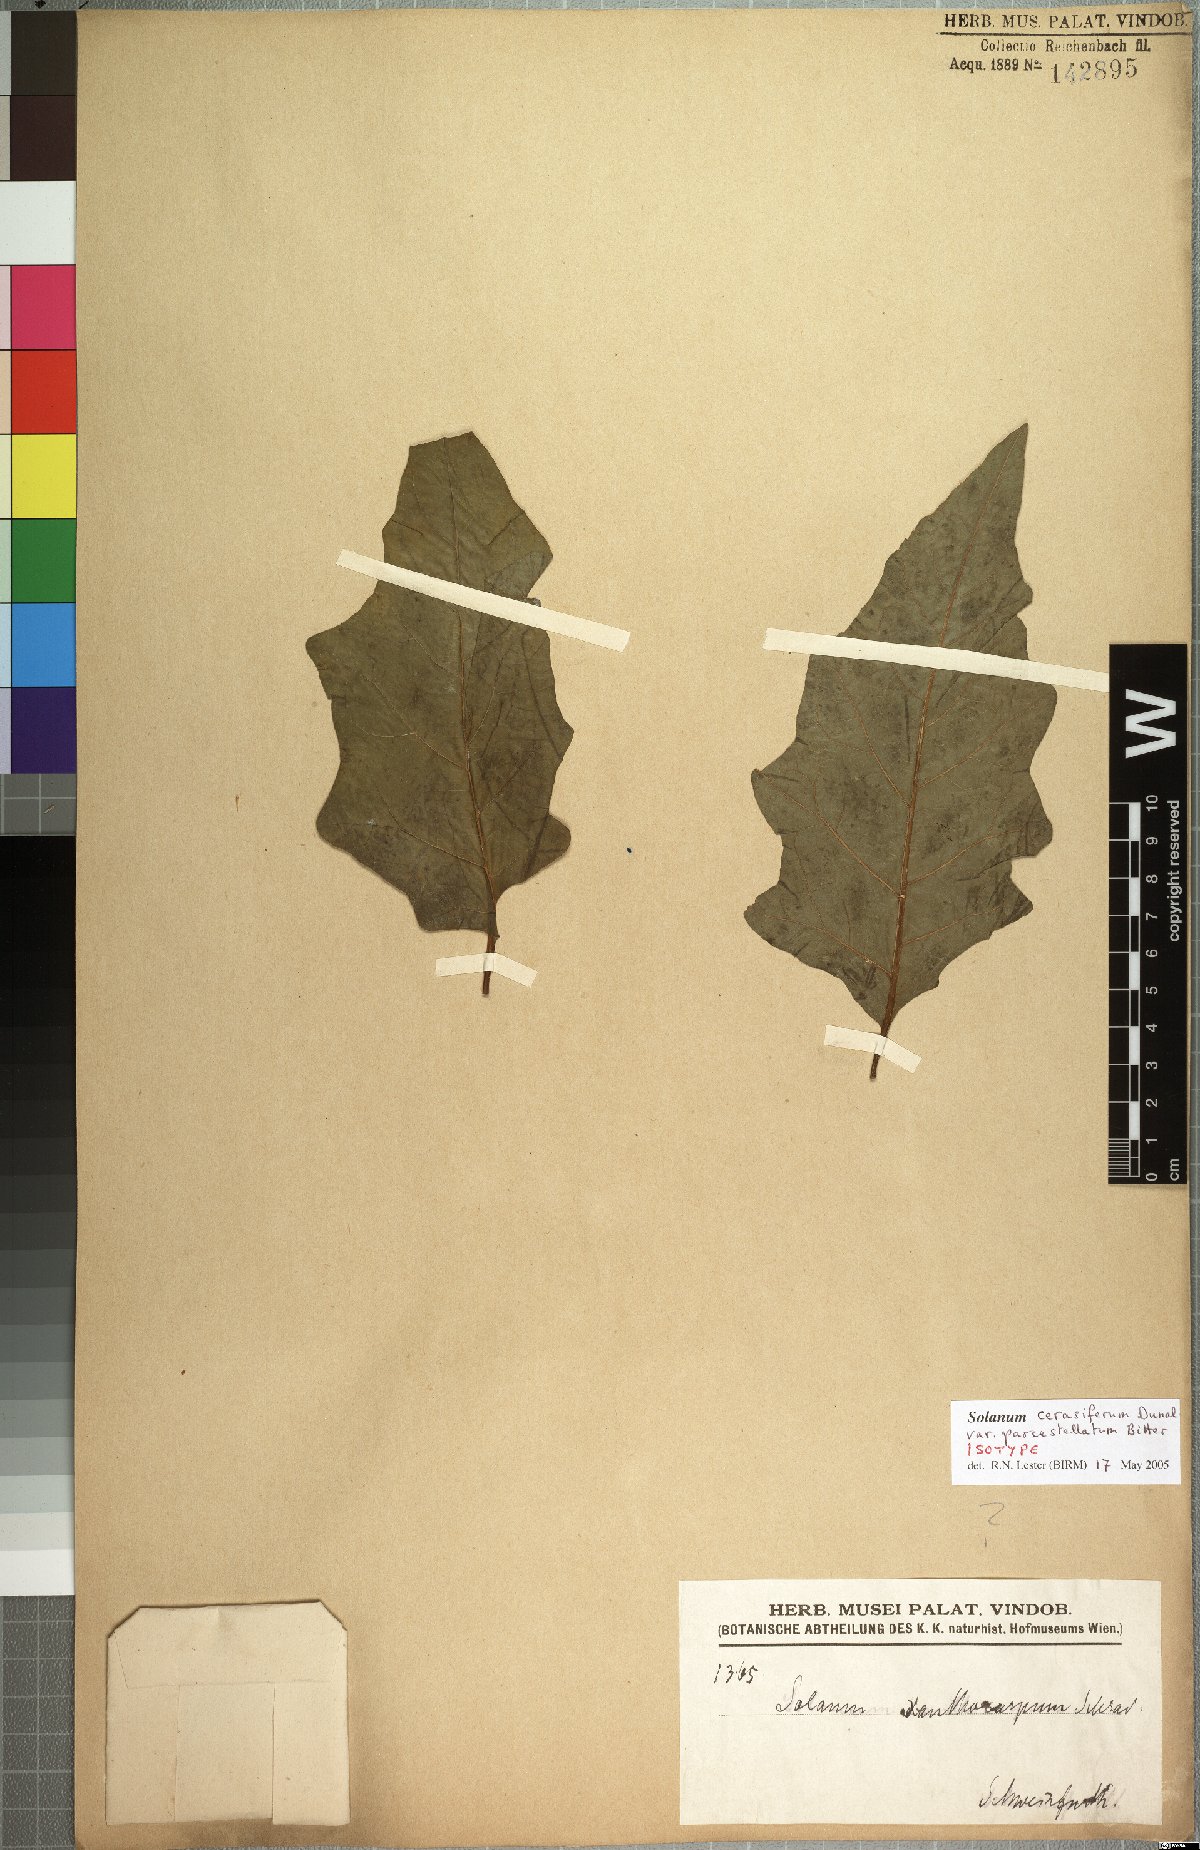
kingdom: Plantae
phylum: Tracheophyta
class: Magnoliopsida
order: Solanales
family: Solanaceae
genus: Solanum
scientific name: Solanum cerasiferum
